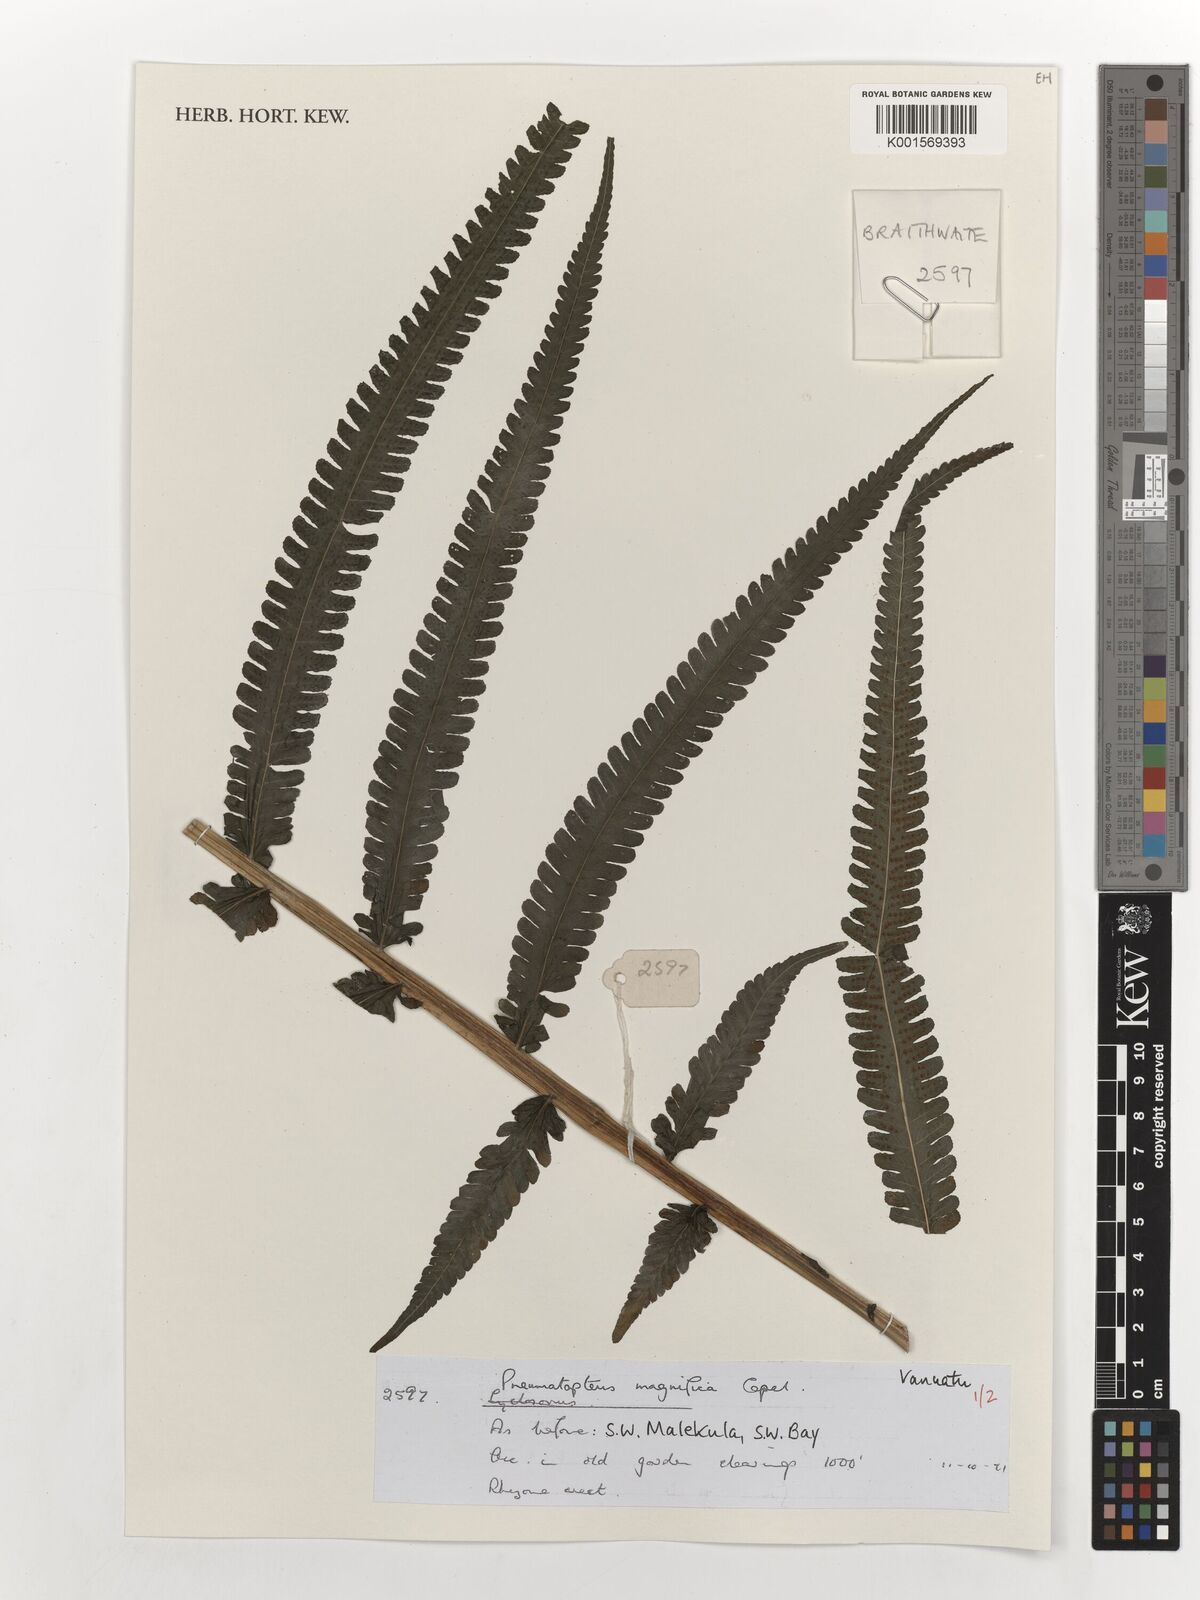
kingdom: Plantae
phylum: Tracheophyta
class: Polypodiopsida
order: Polypodiales
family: Thelypteridaceae
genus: Reholttumia
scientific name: Reholttumia magnifica
